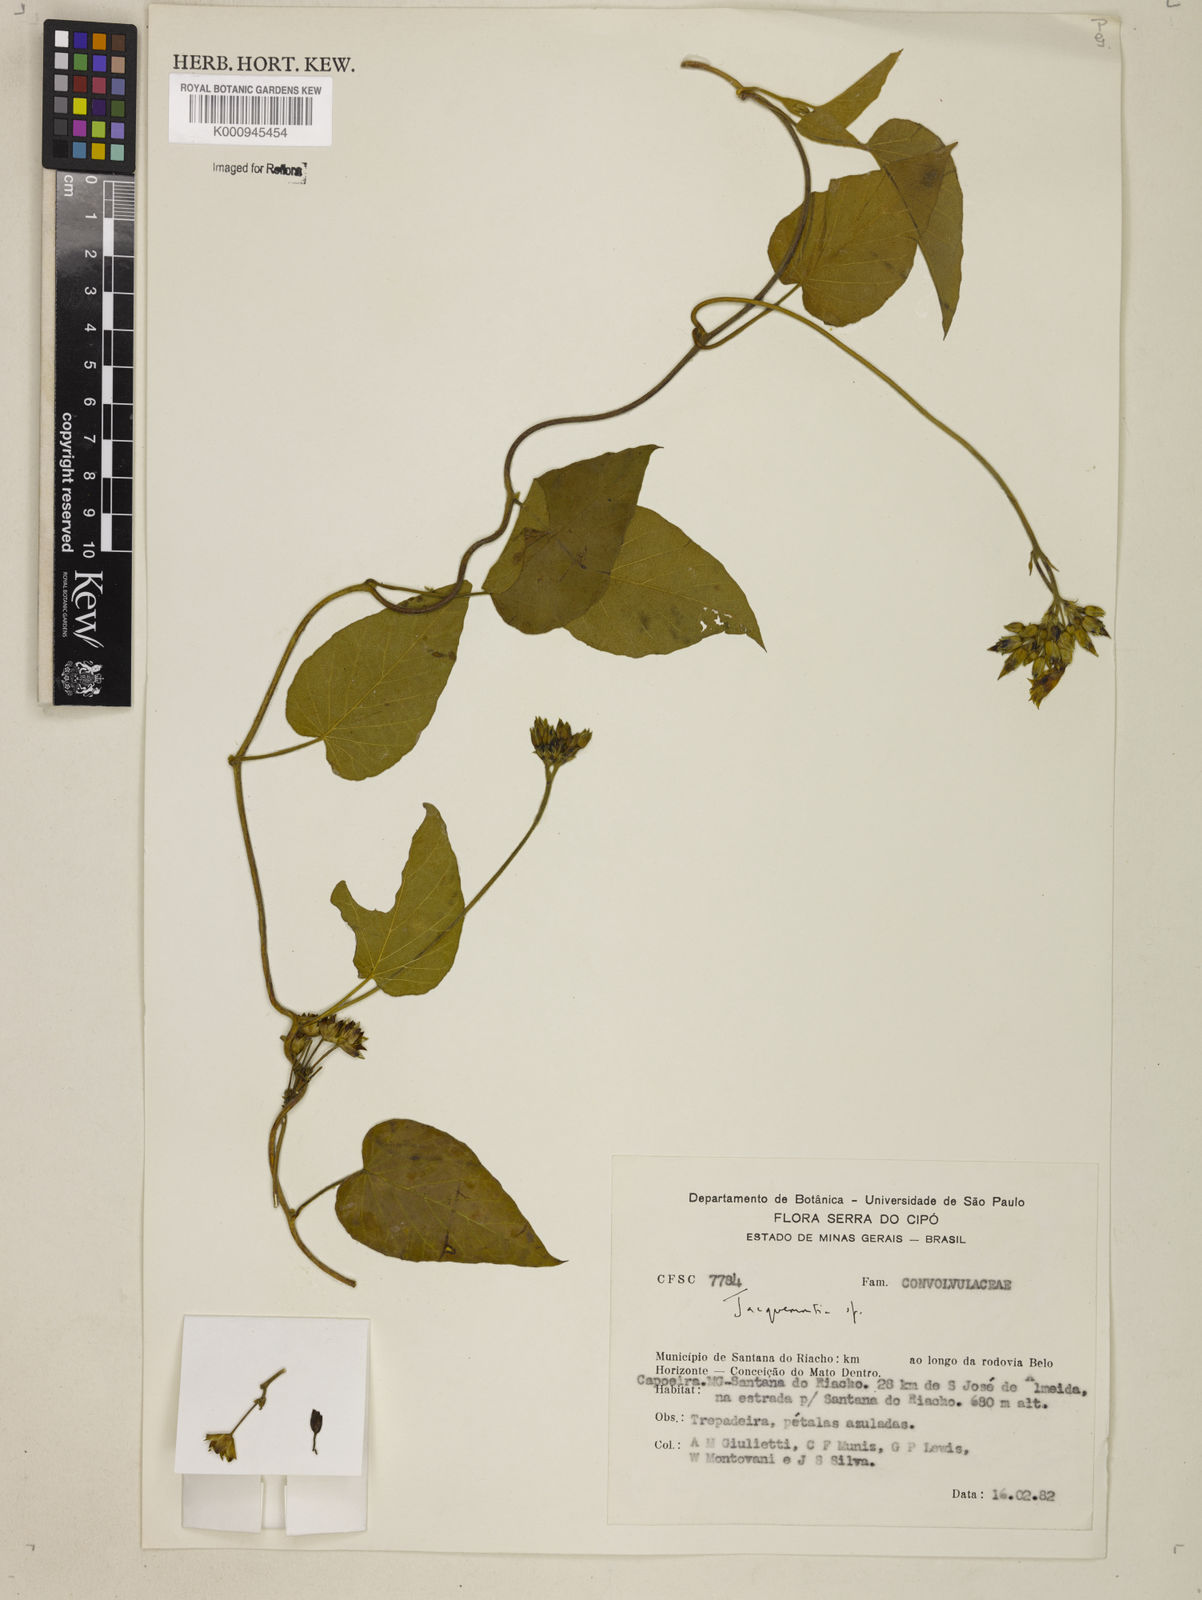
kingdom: Plantae
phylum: Tracheophyta
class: Magnoliopsida
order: Solanales
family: Convolvulaceae
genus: Jacquemontia
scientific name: Jacquemontia
